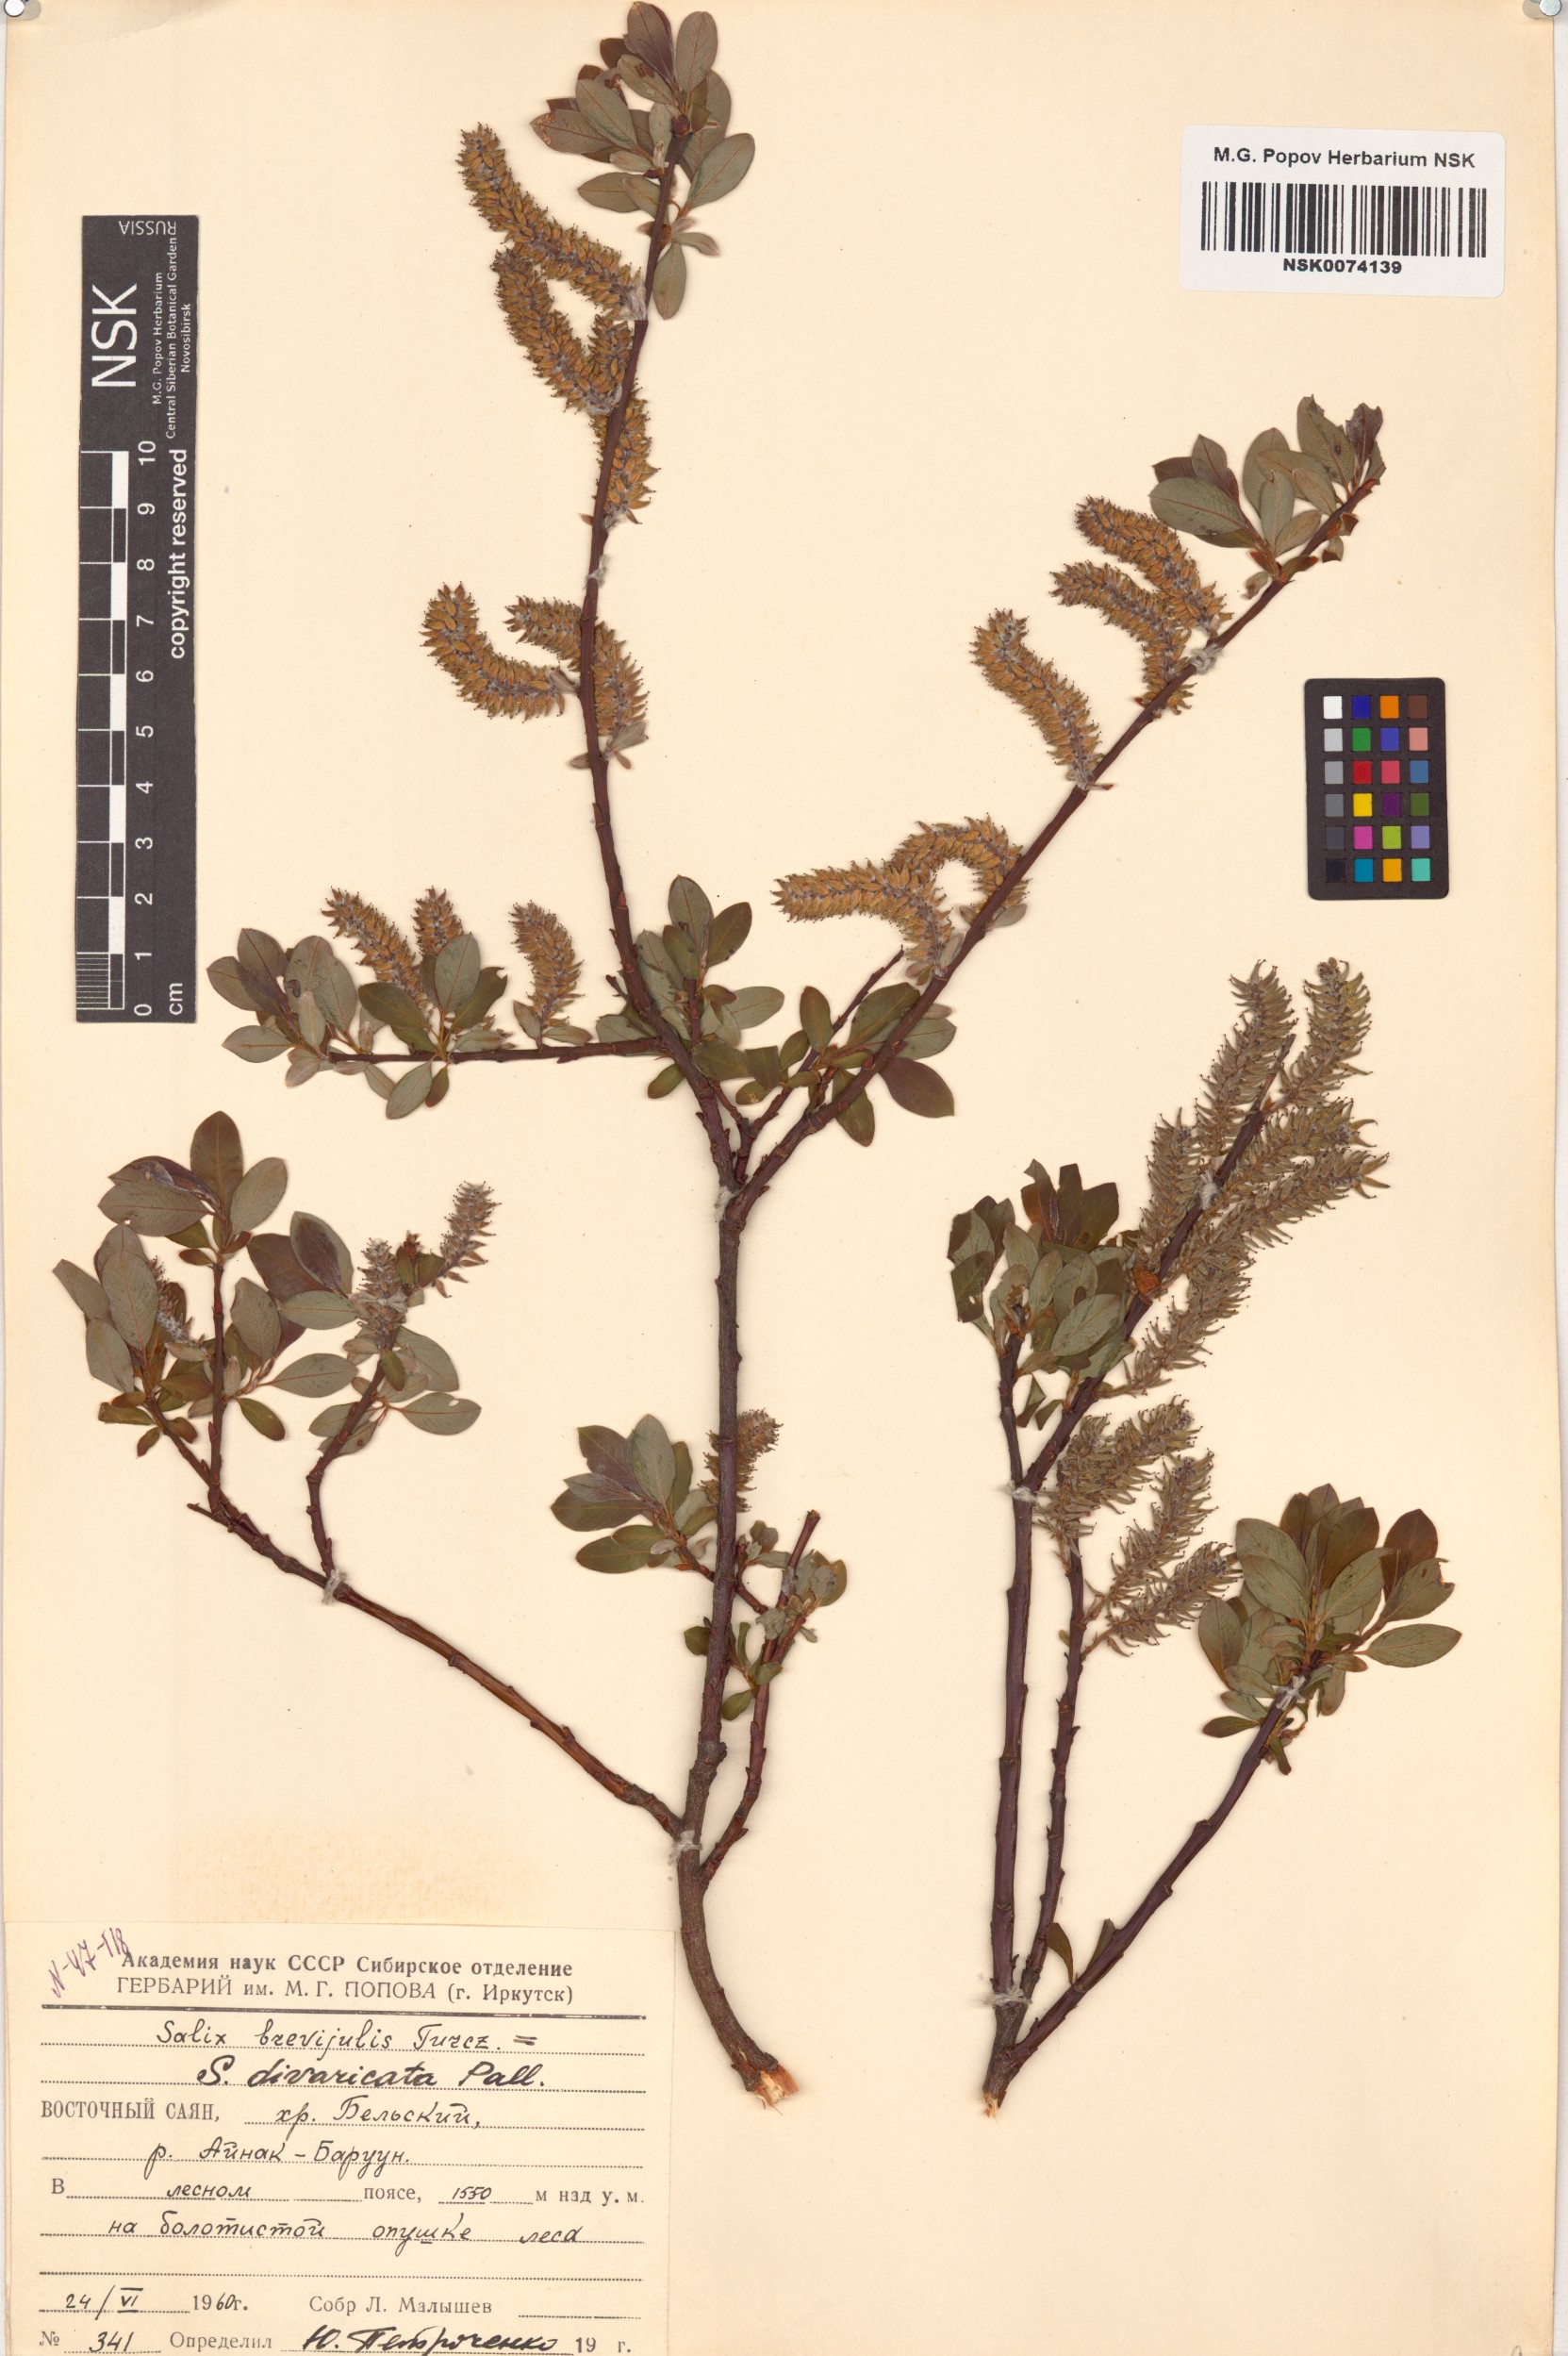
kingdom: Plantae
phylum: Tracheophyta
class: Magnoliopsida
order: Malpighiales
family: Salicaceae
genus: Salix
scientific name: Salix divaricata
